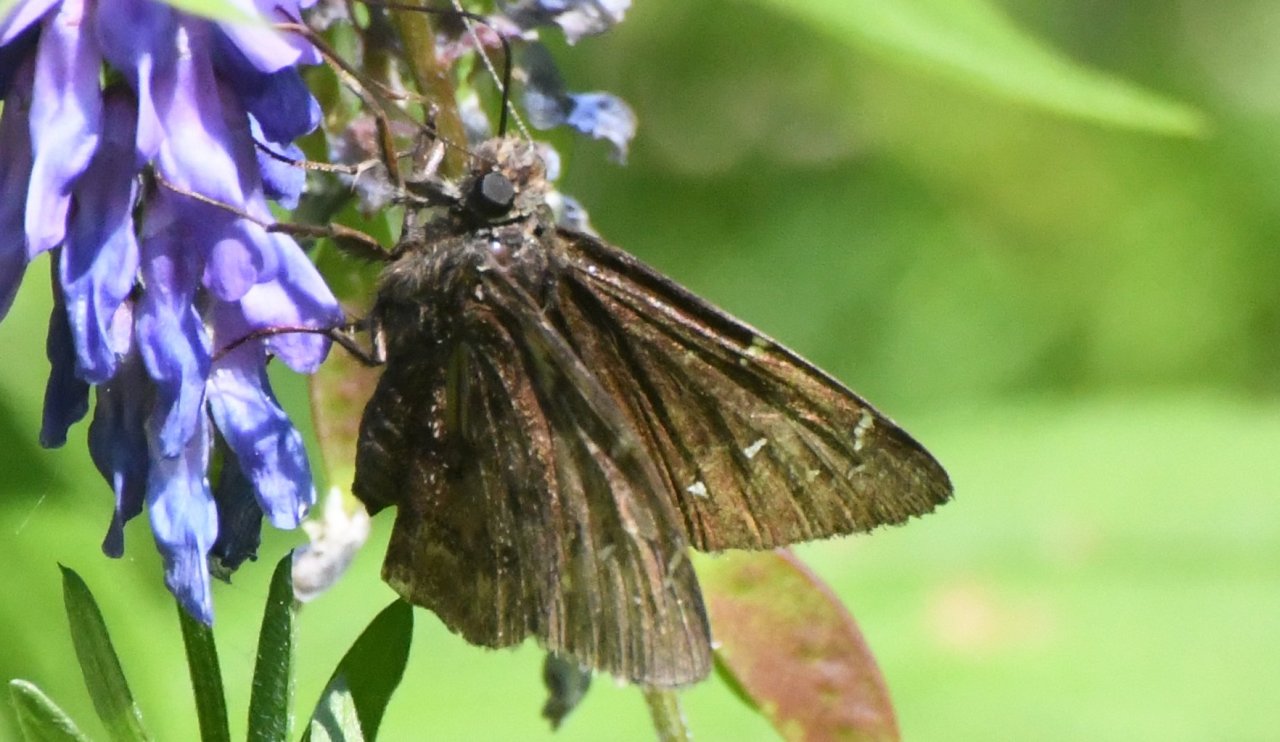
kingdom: Animalia
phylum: Arthropoda
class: Insecta
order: Lepidoptera
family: Hesperiidae
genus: Autochton
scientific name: Autochton
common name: Northern Cloudywing
